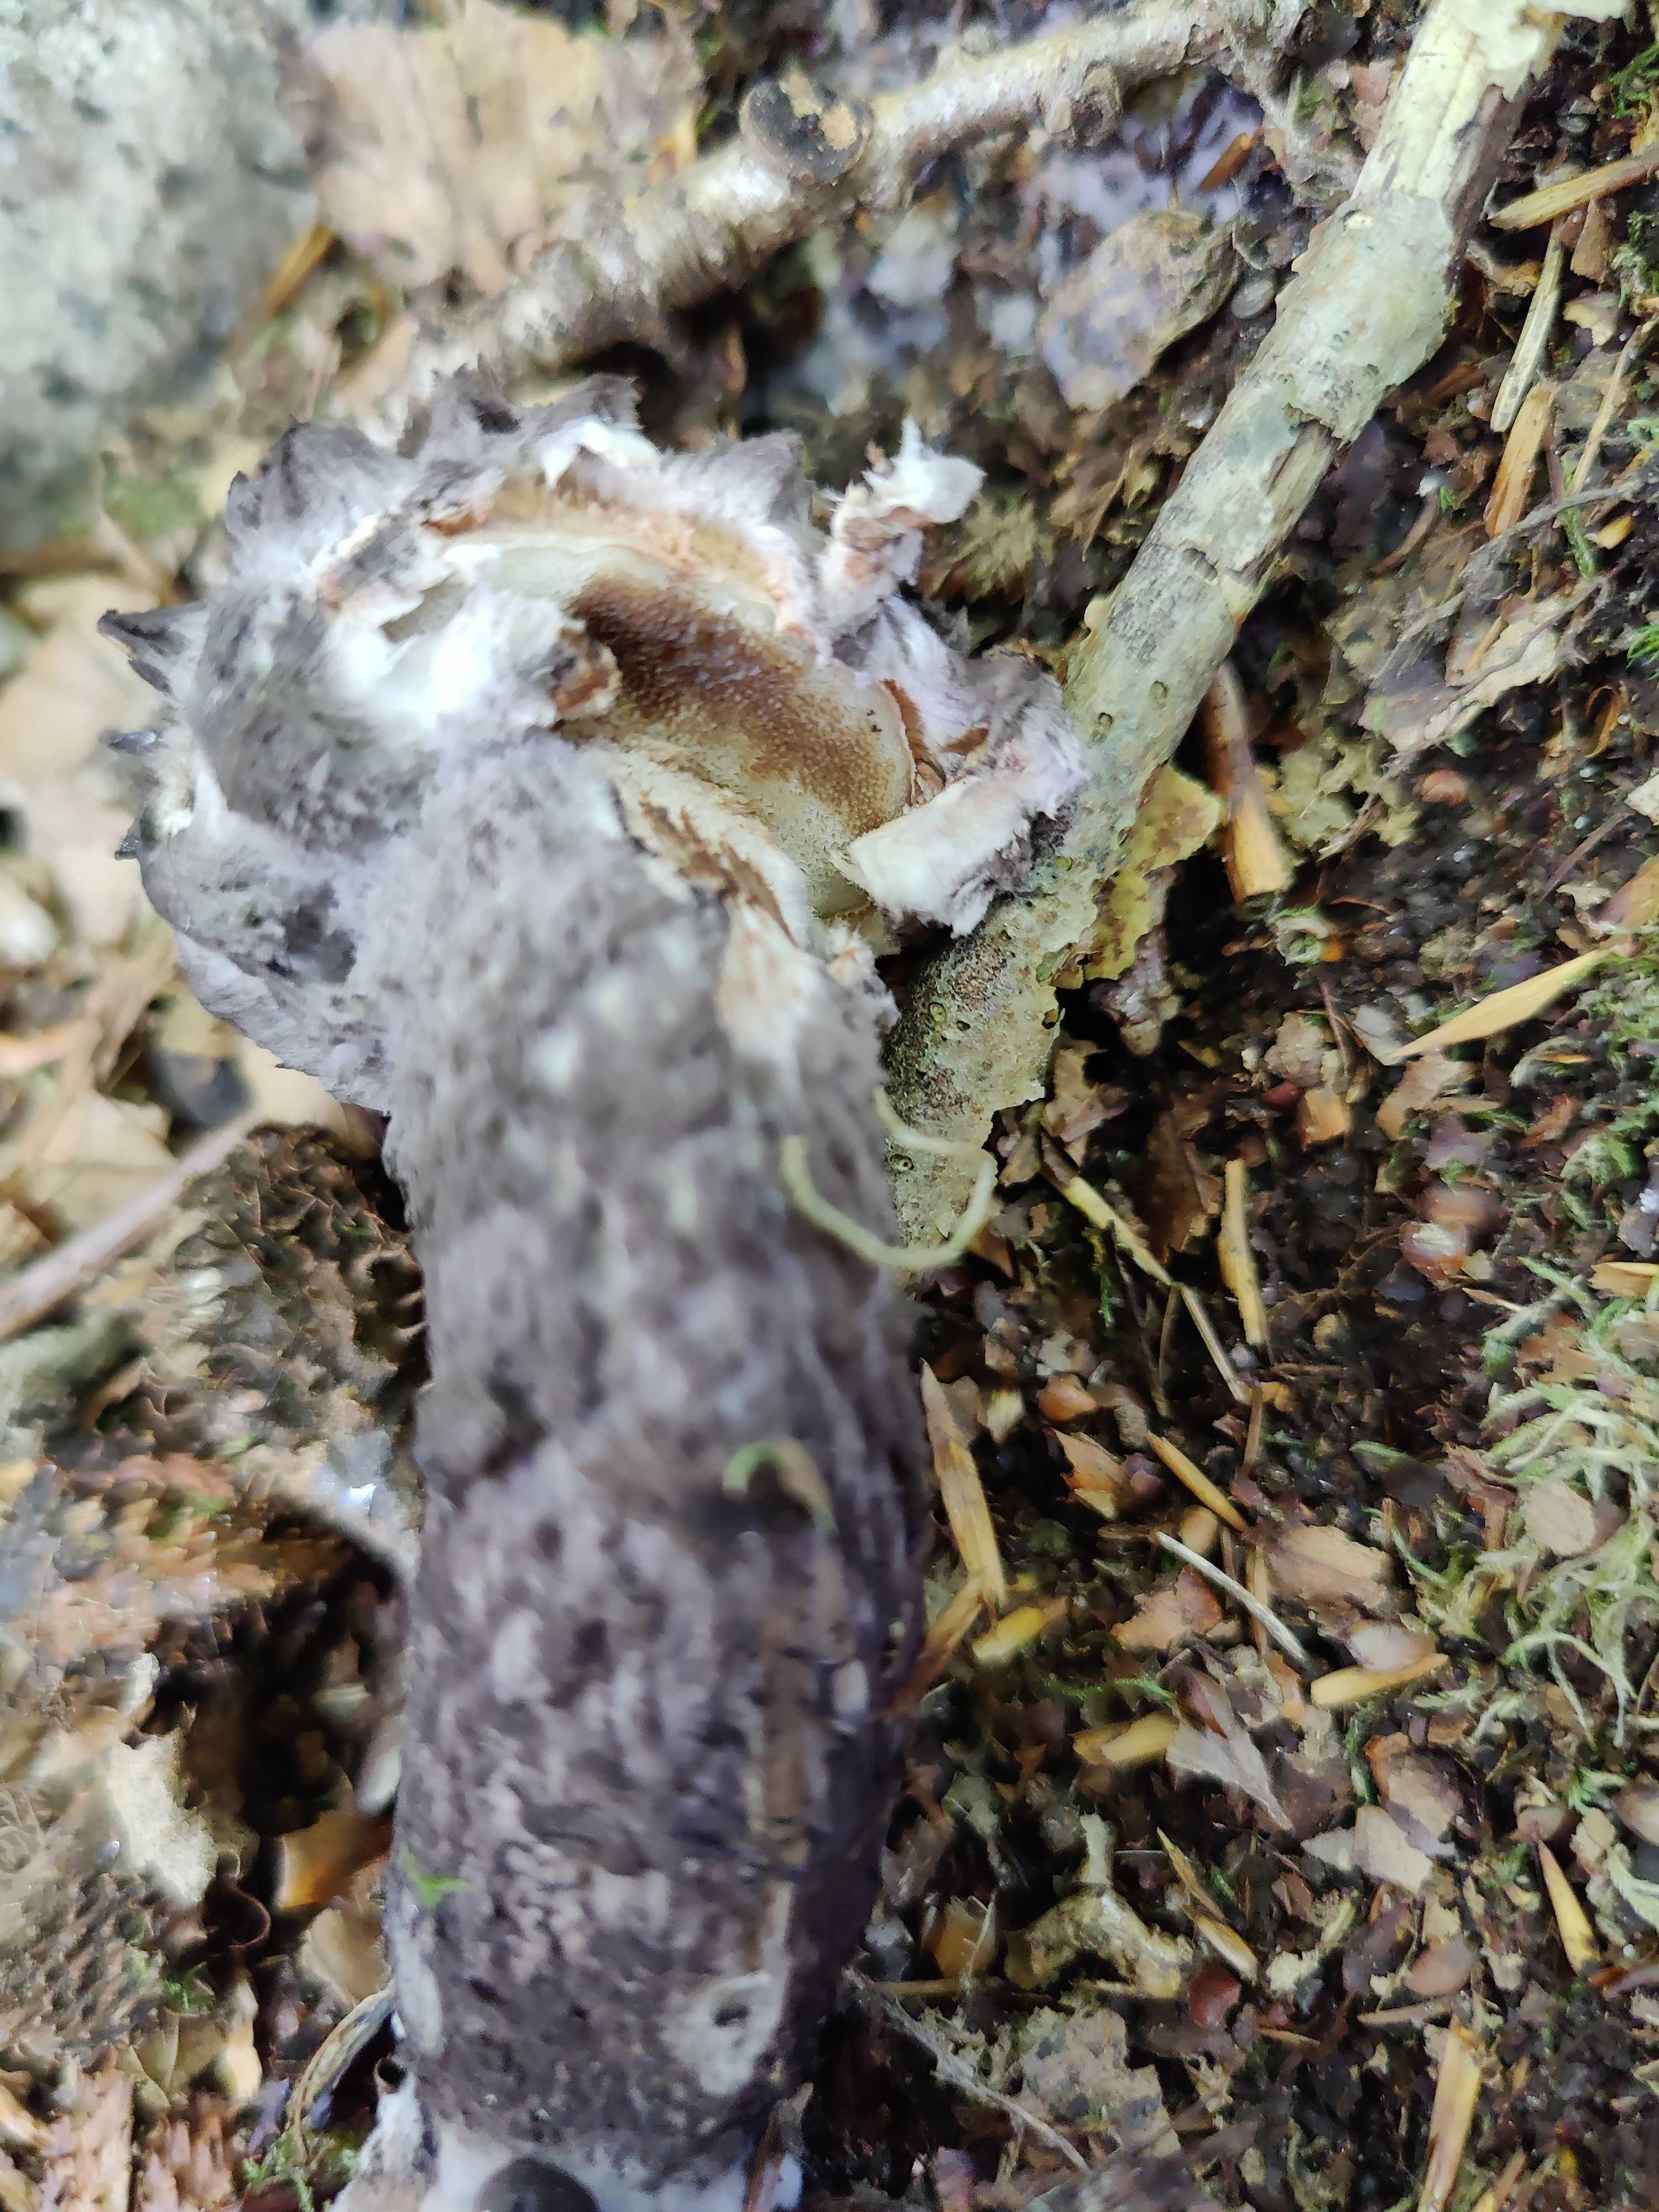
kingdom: Fungi
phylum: Basidiomycota
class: Agaricomycetes
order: Boletales
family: Boletaceae
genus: Strobilomyces
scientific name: Strobilomyces strobilaceus
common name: koglerørhat
